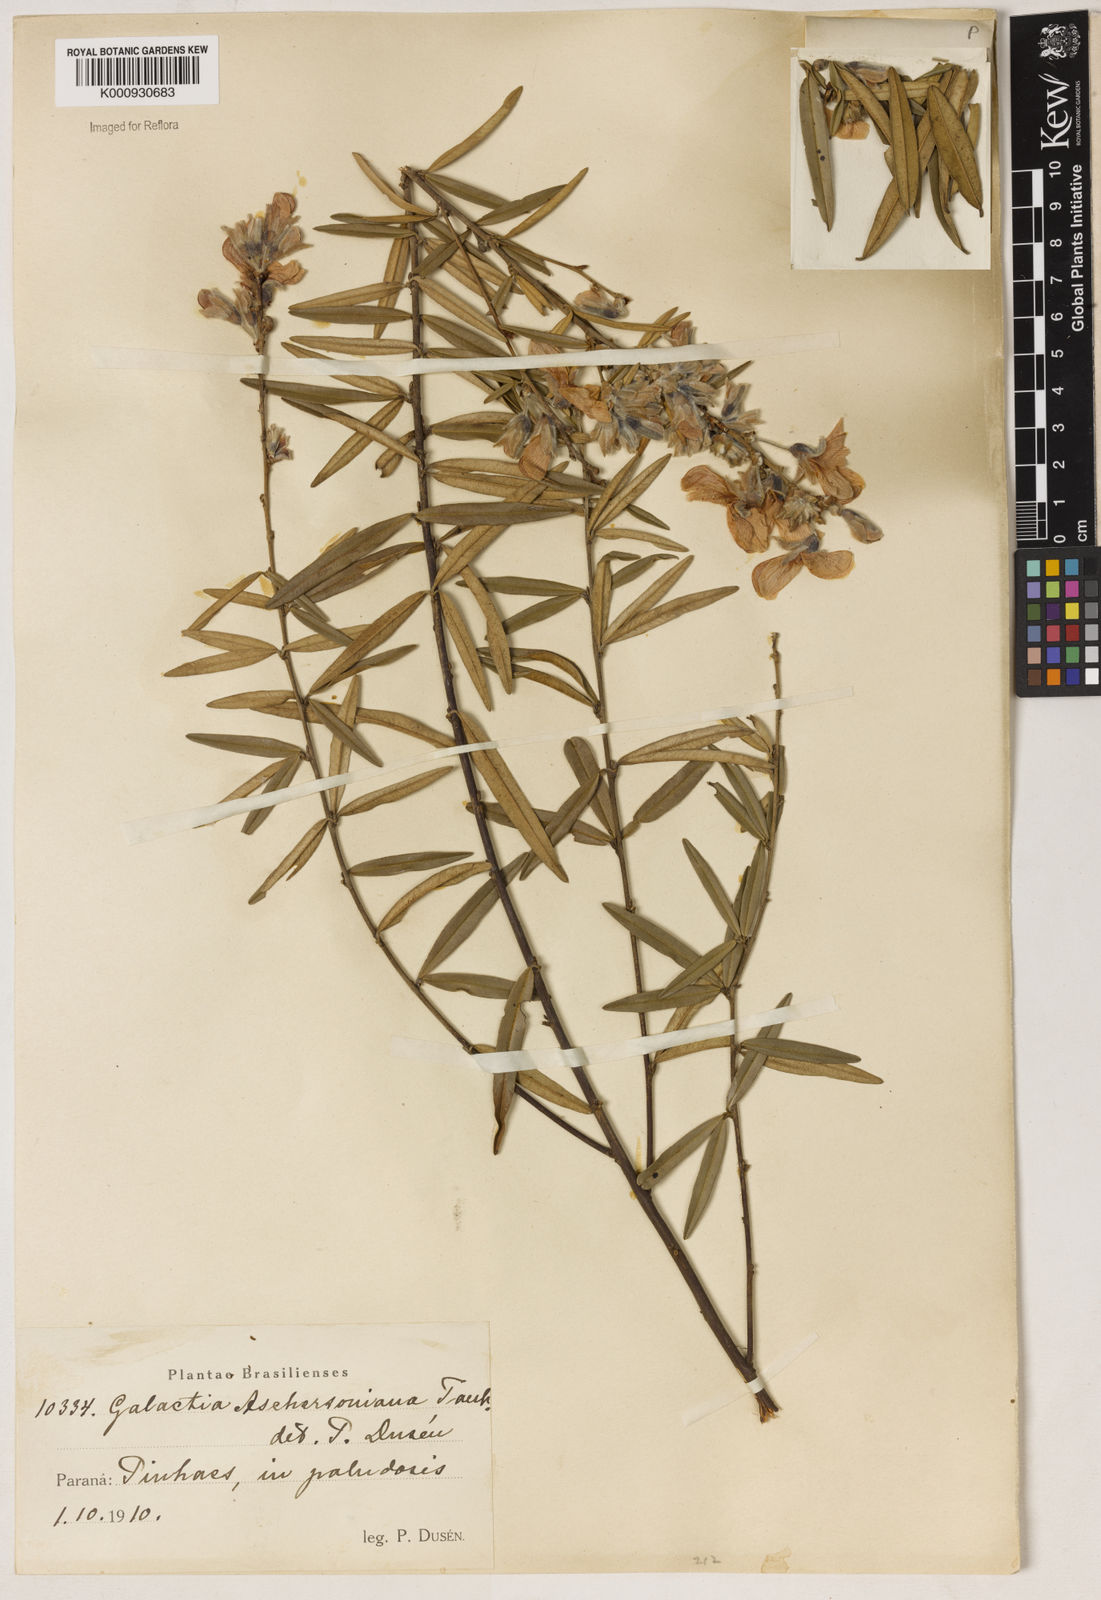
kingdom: Plantae
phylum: Tracheophyta
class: Liliopsida
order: Asparagales
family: Orchidaceae
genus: Pelexia
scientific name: Pelexia
